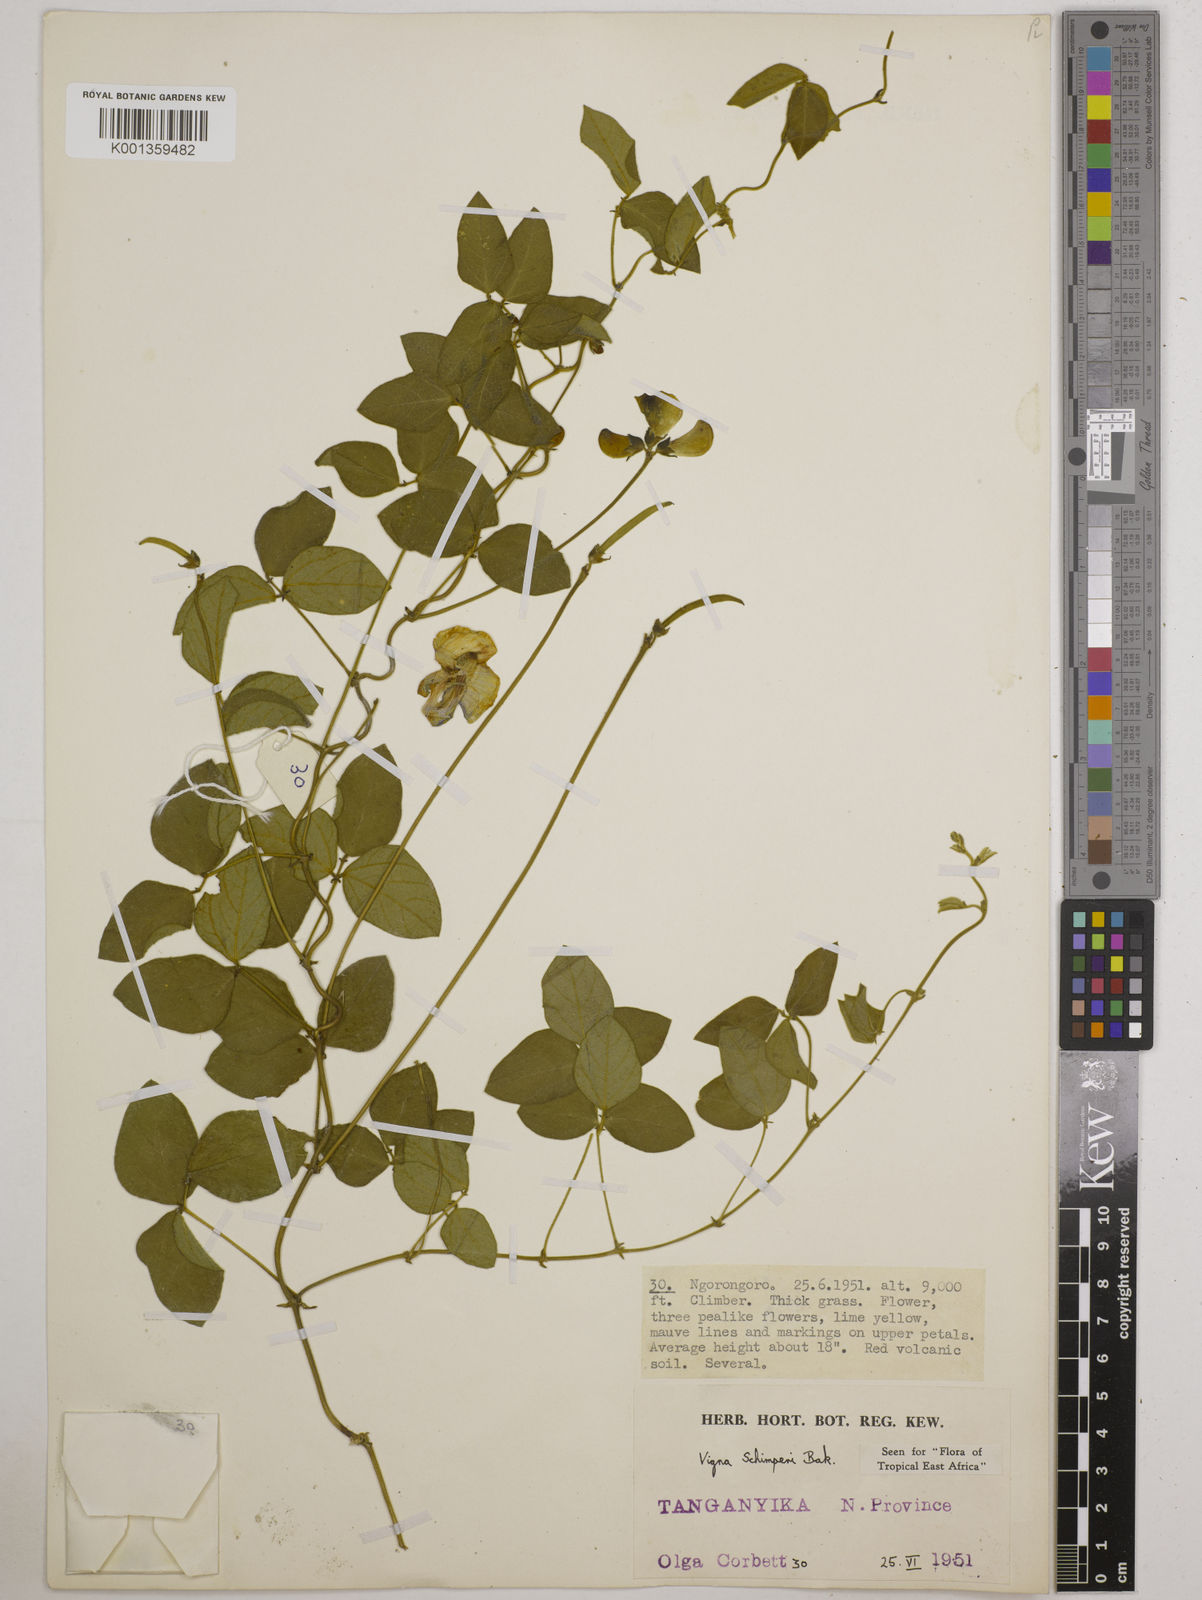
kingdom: Plantae
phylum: Tracheophyta
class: Magnoliopsida
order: Fabales
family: Fabaceae
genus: Vigna
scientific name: Vigna schimperi
